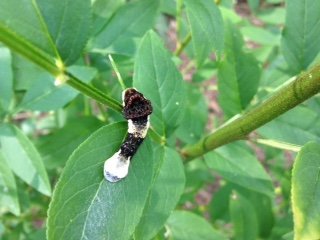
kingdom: Animalia
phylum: Arthropoda
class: Insecta
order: Lepidoptera
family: Papilionidae
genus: Papilio
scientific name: Papilio cresphontes
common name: Eastern Giant Swallowtail
